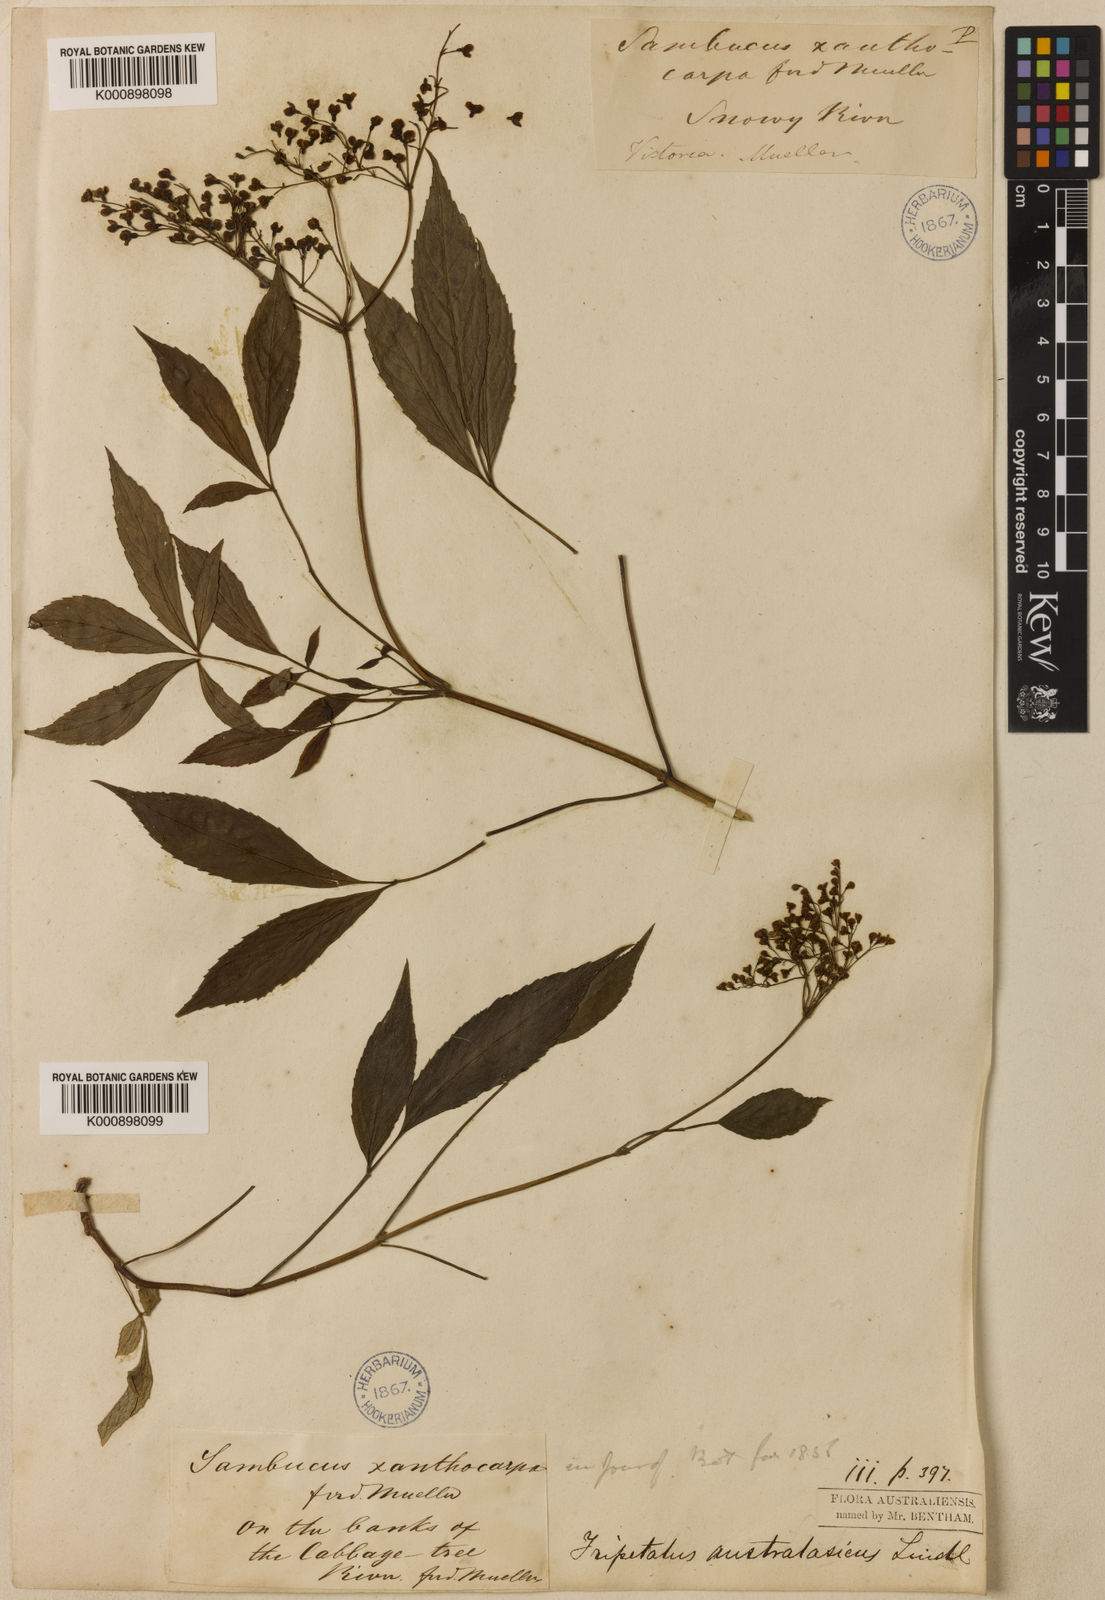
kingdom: Plantae
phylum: Tracheophyta
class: Magnoliopsida
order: Dipsacales
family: Viburnaceae
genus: Sambucus
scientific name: Sambucus australasica
